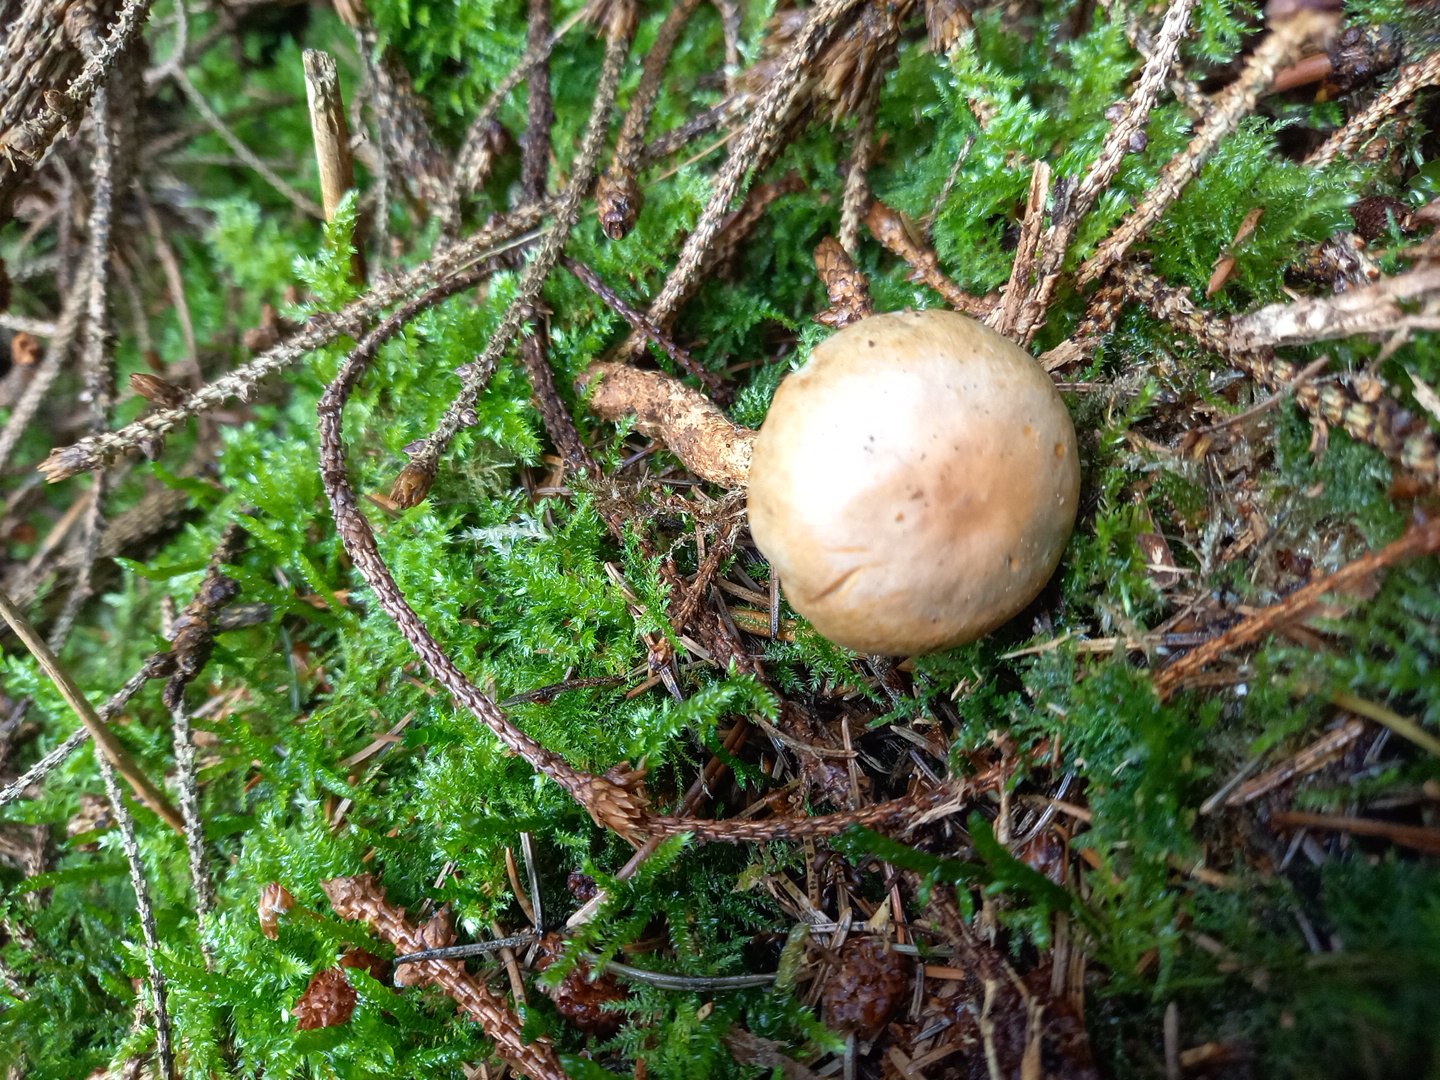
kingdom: Fungi
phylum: Basidiomycota
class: Agaricomycetes
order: Agaricales
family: Strophariaceae
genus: Hypholoma
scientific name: Hypholoma radicosum
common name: pælerods-svovlhat
